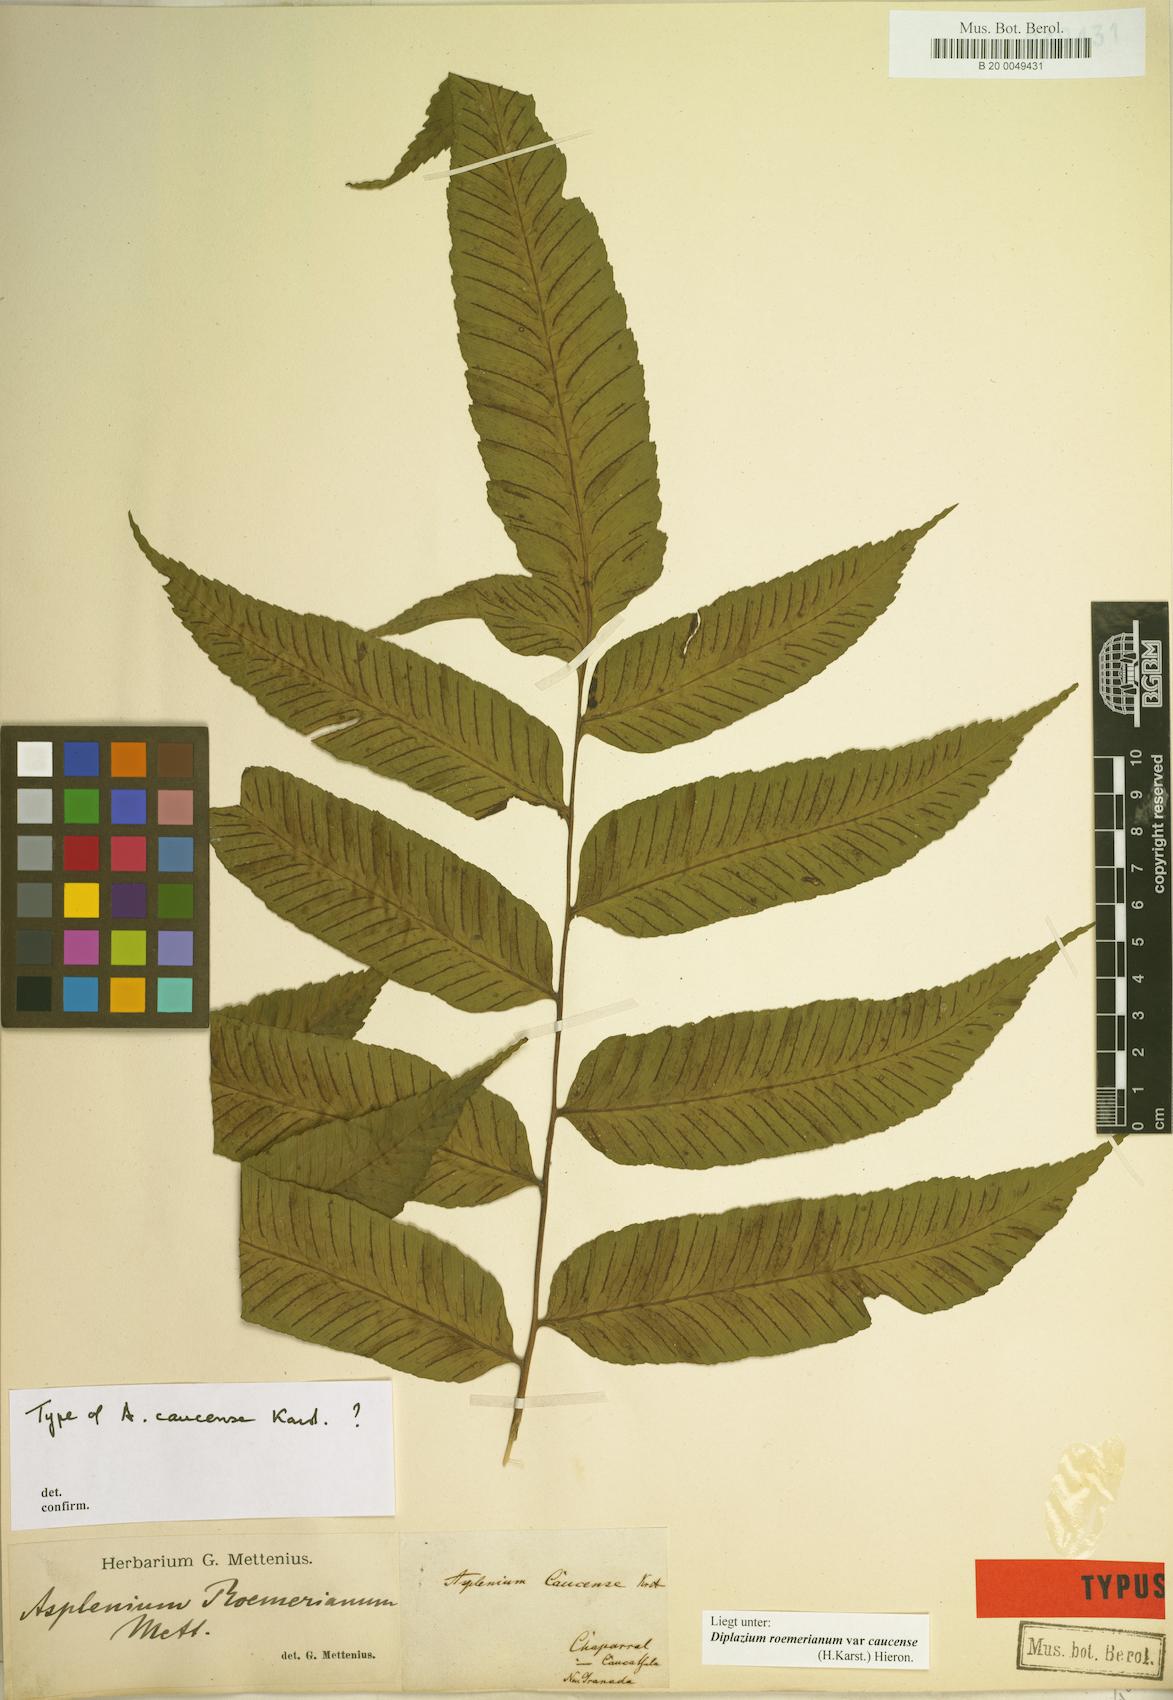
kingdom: Plantae
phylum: Tracheophyta
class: Polypodiopsida
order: Polypodiales
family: Athyriaceae
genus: Diplazium
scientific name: Diplazium roemerianum
